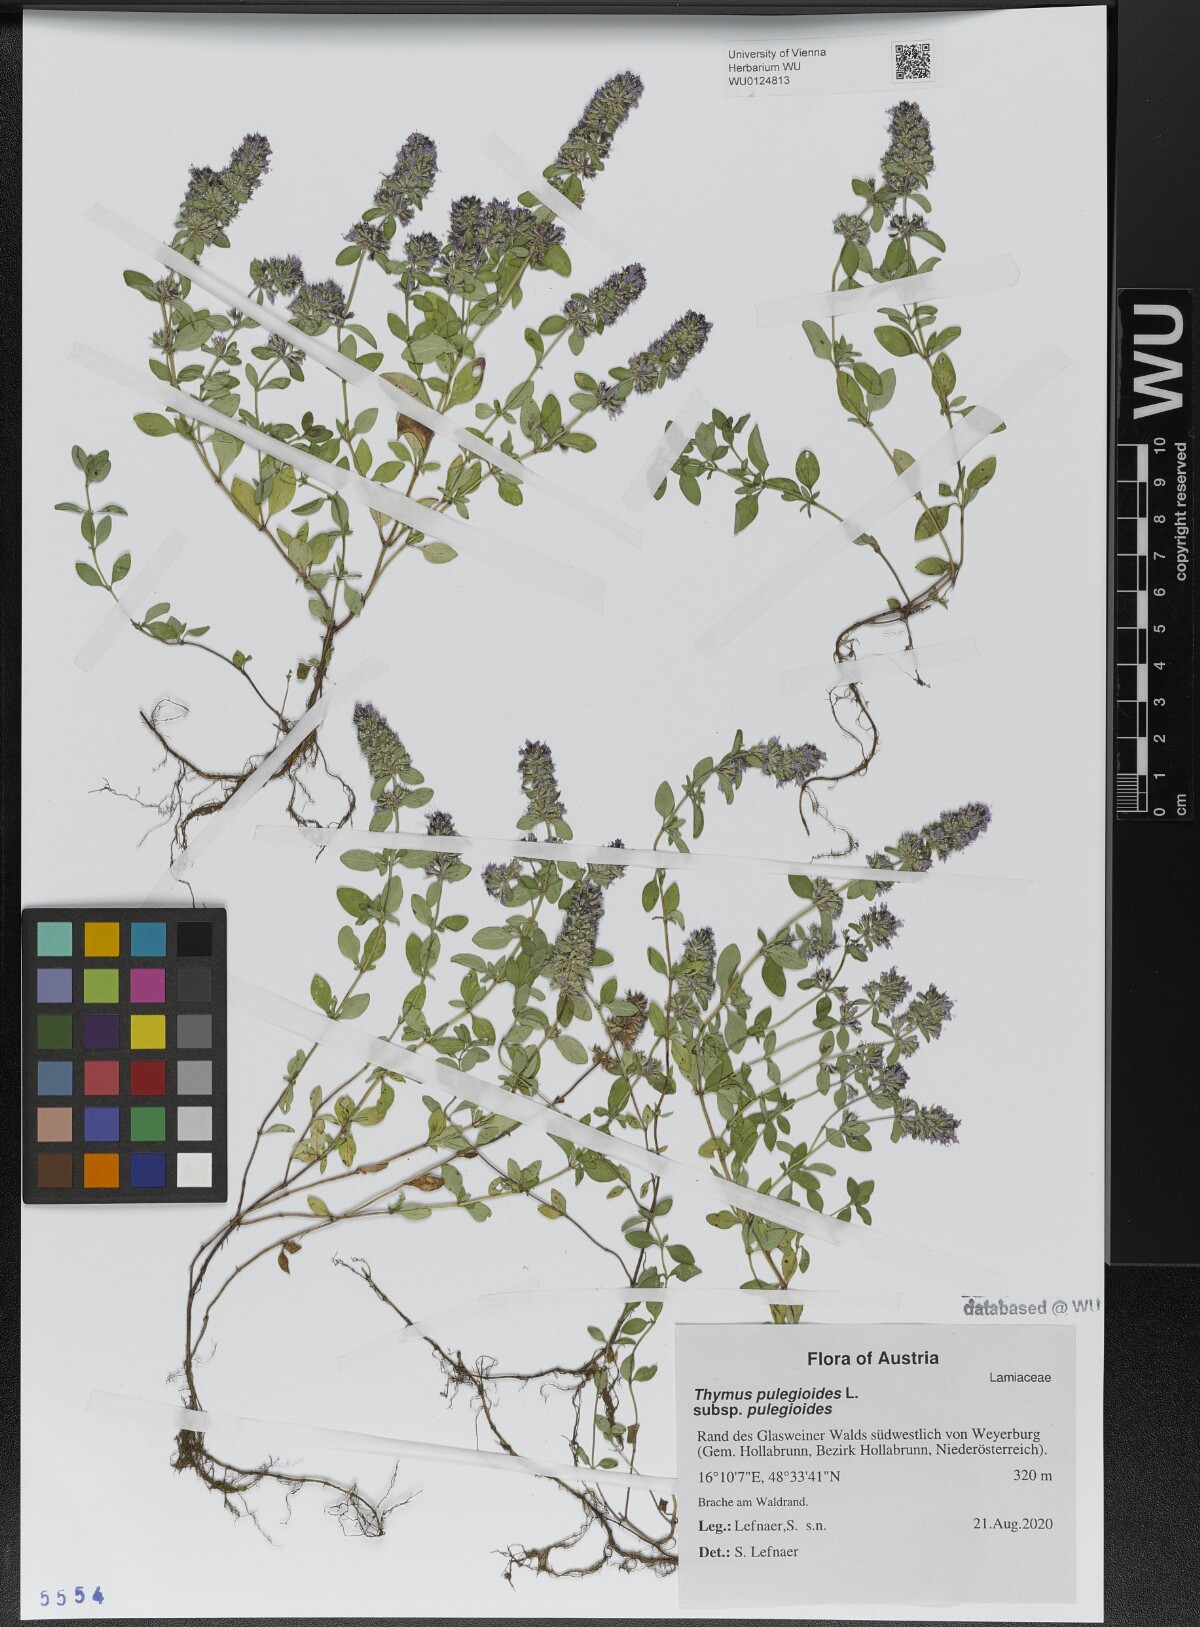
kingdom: Plantae
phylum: Tracheophyta
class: Magnoliopsida
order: Lamiales
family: Lamiaceae
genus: Thymus
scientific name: Thymus pulegioides
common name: Large thyme
